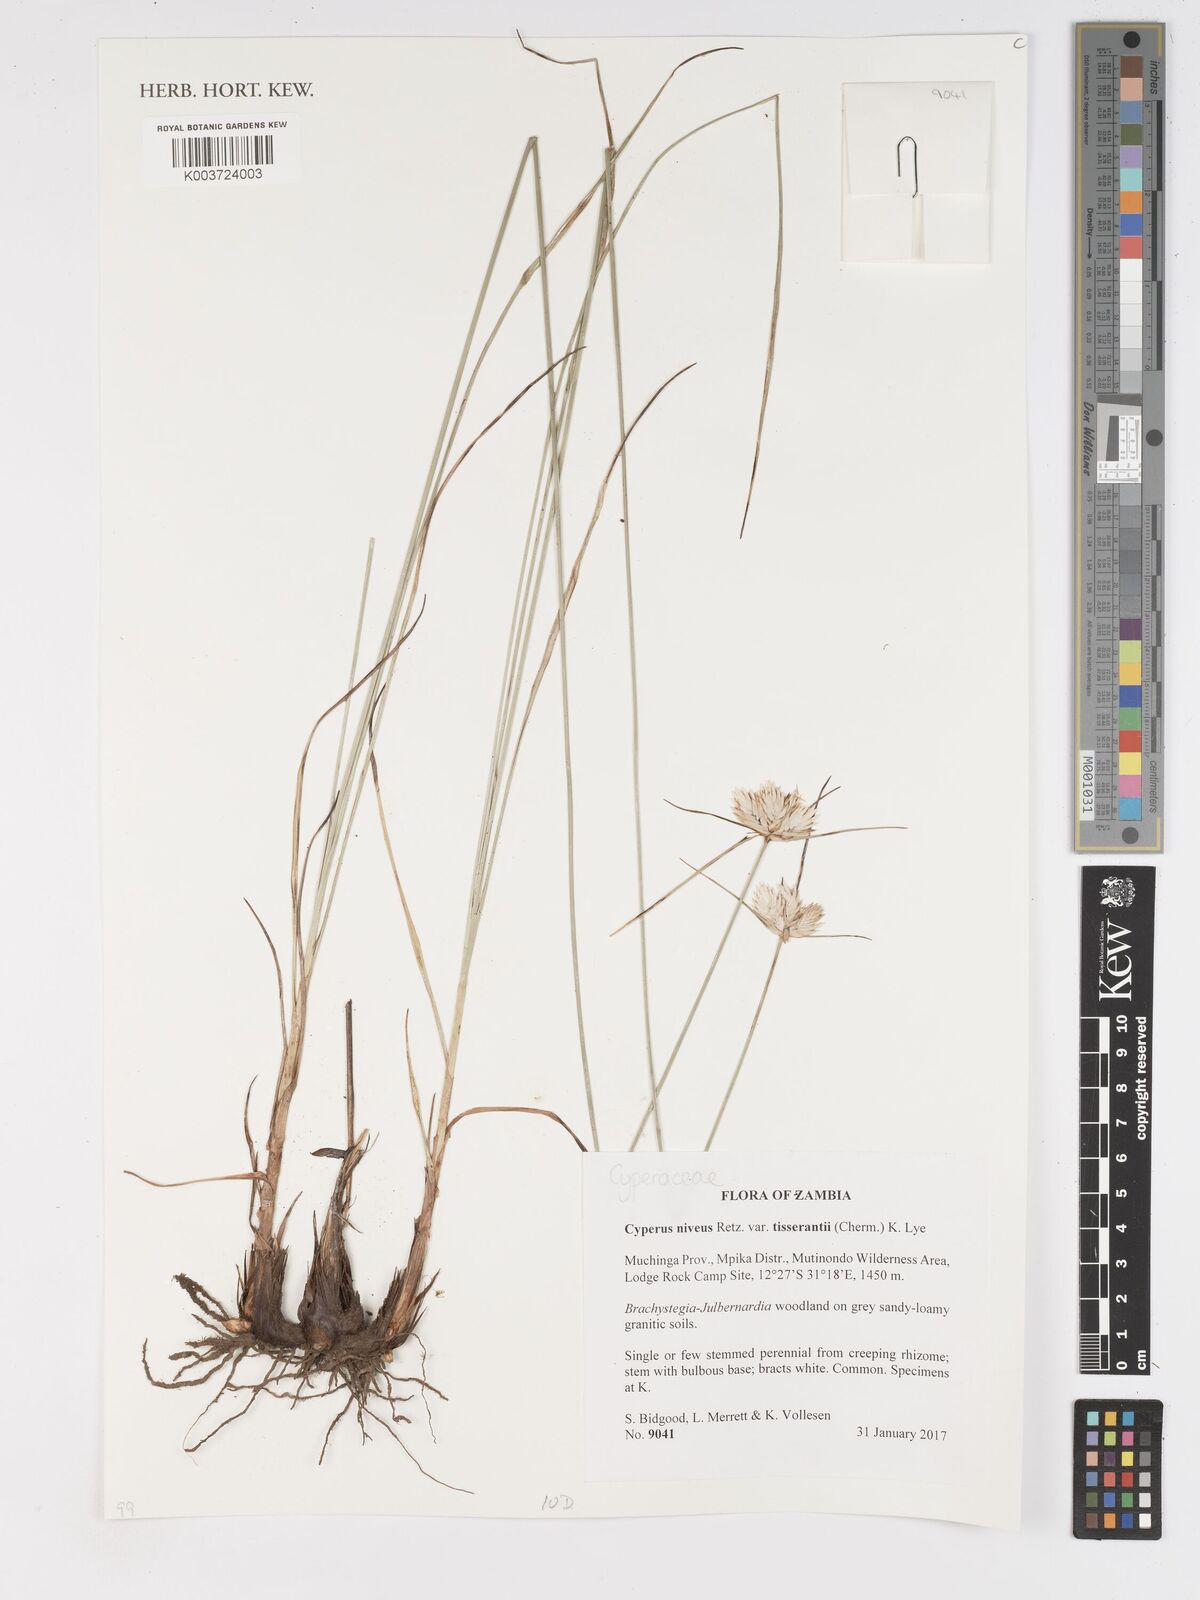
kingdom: Plantae
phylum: Tracheophyta
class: Liliopsida
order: Poales
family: Cyperaceae
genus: Cyperus
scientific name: Cyperus niveus
